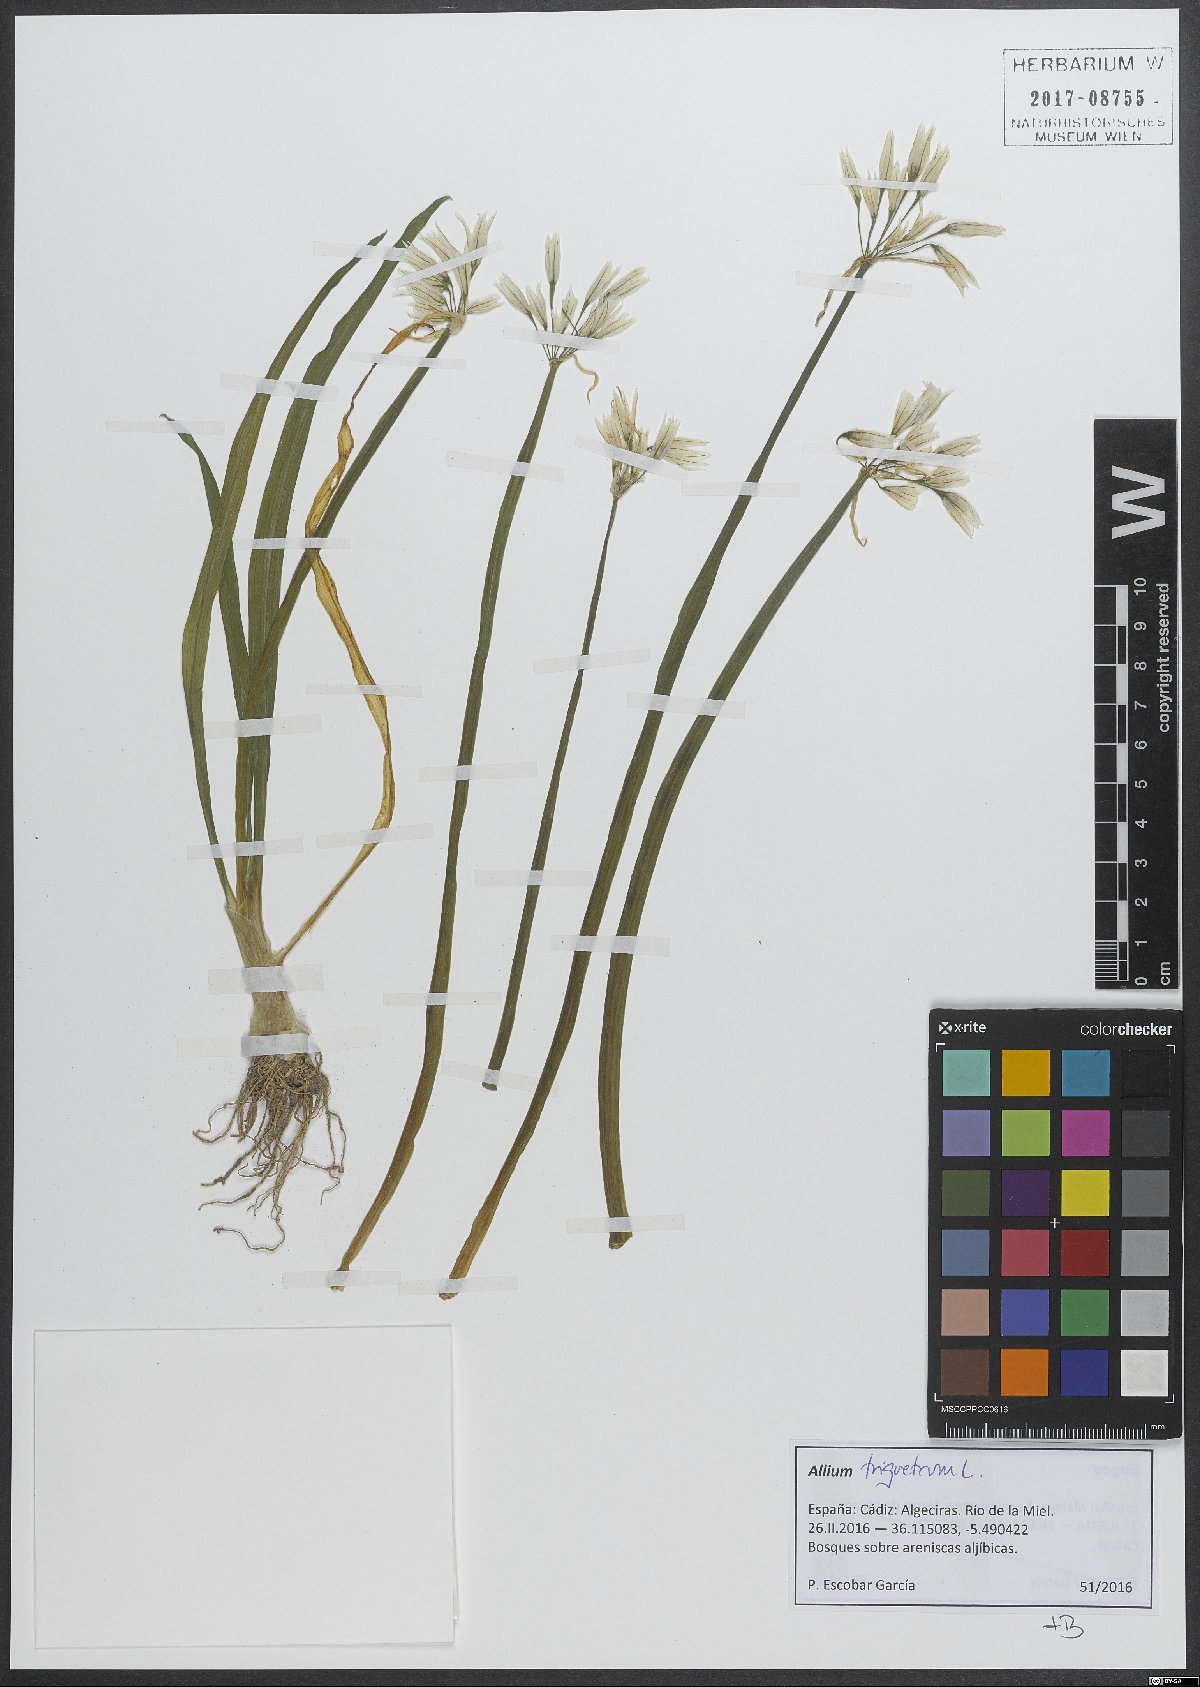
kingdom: Plantae
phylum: Tracheophyta
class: Liliopsida
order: Asparagales
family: Amaryllidaceae
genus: Allium
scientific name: Allium triquetrum
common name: Three-cornered garlic
